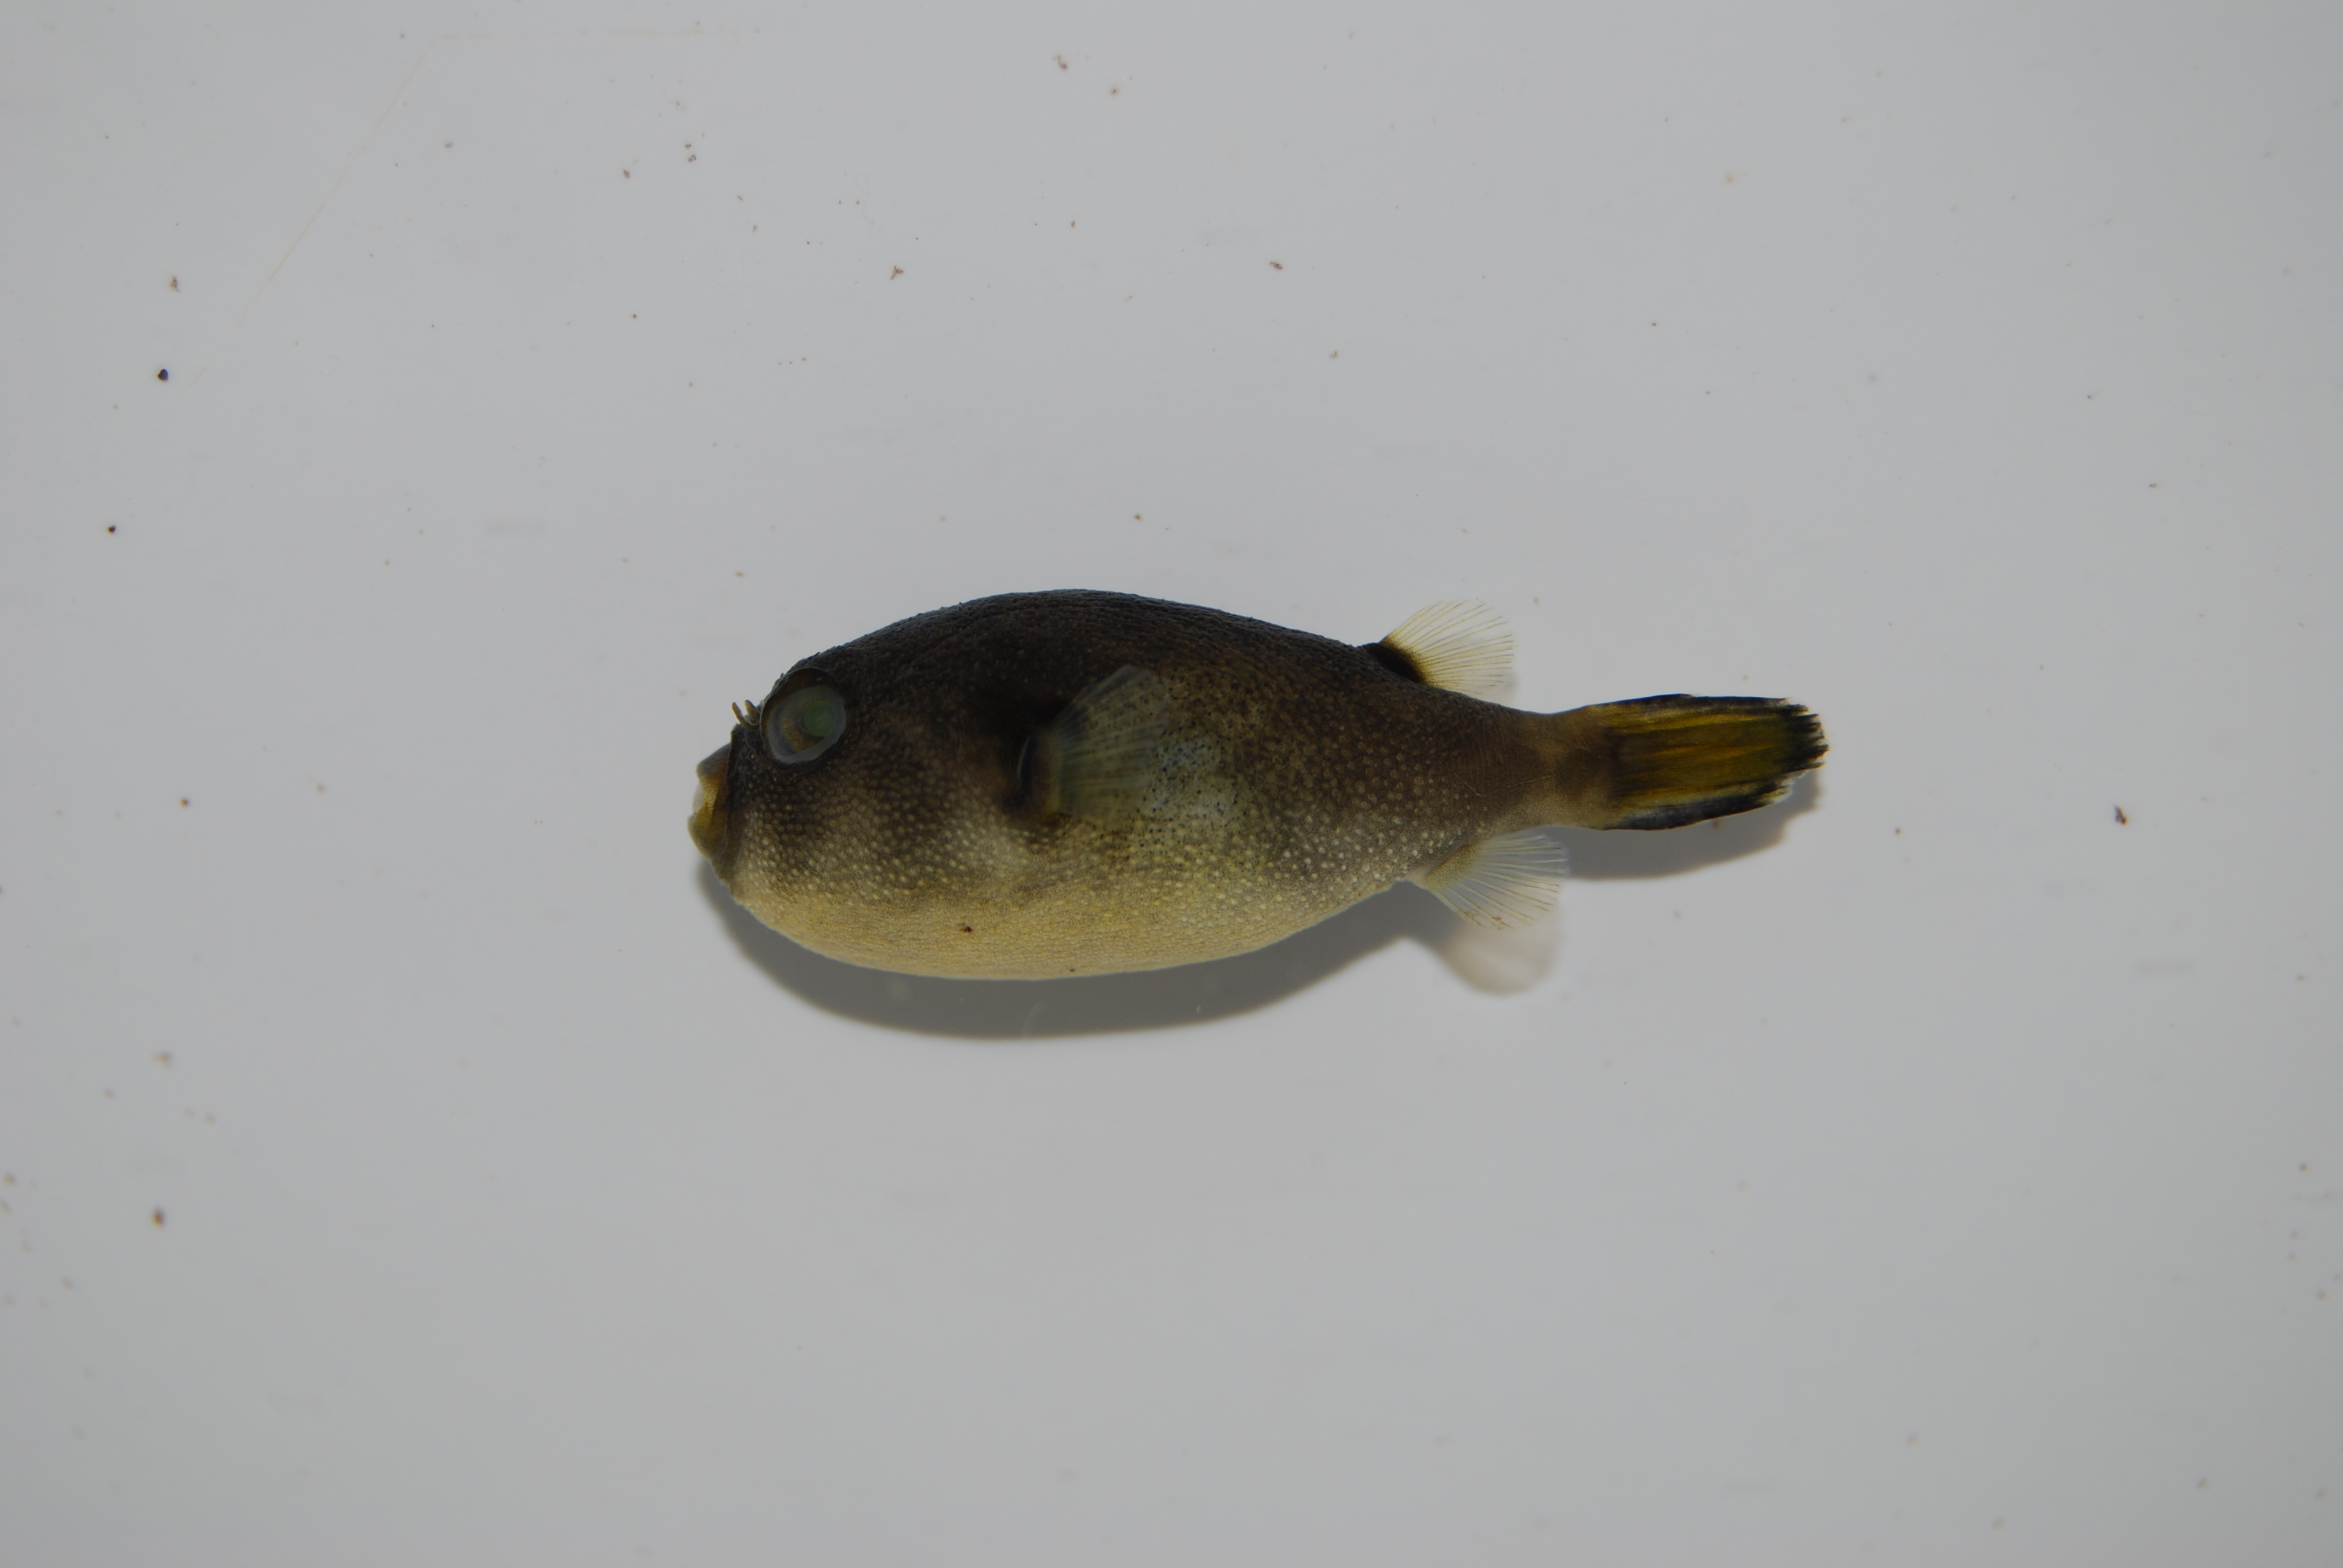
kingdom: Animalia
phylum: Chordata
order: Tetraodontiformes
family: Tetraodontidae
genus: Arothron
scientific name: Arothron immaculatus
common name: Blackedged blaasop
